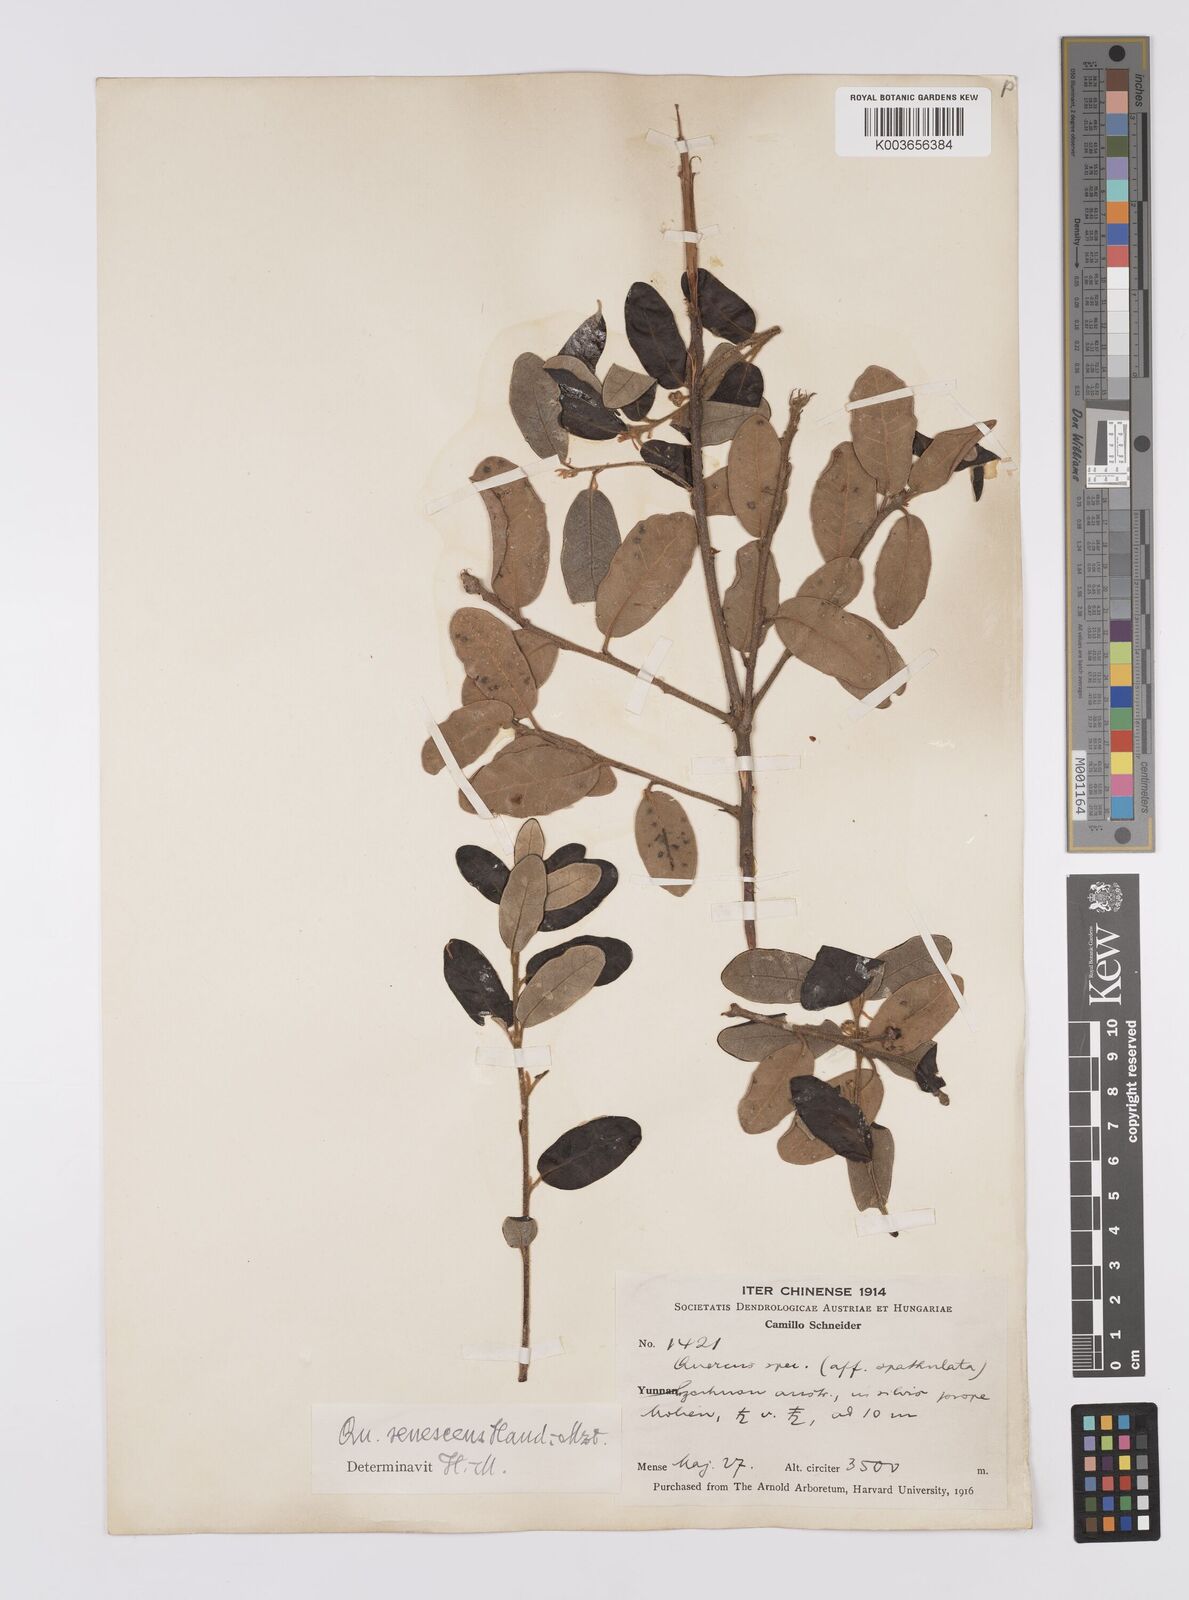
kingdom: Plantae
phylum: Tracheophyta
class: Magnoliopsida
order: Fagales
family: Fagaceae
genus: Quercus
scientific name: Quercus senescens
